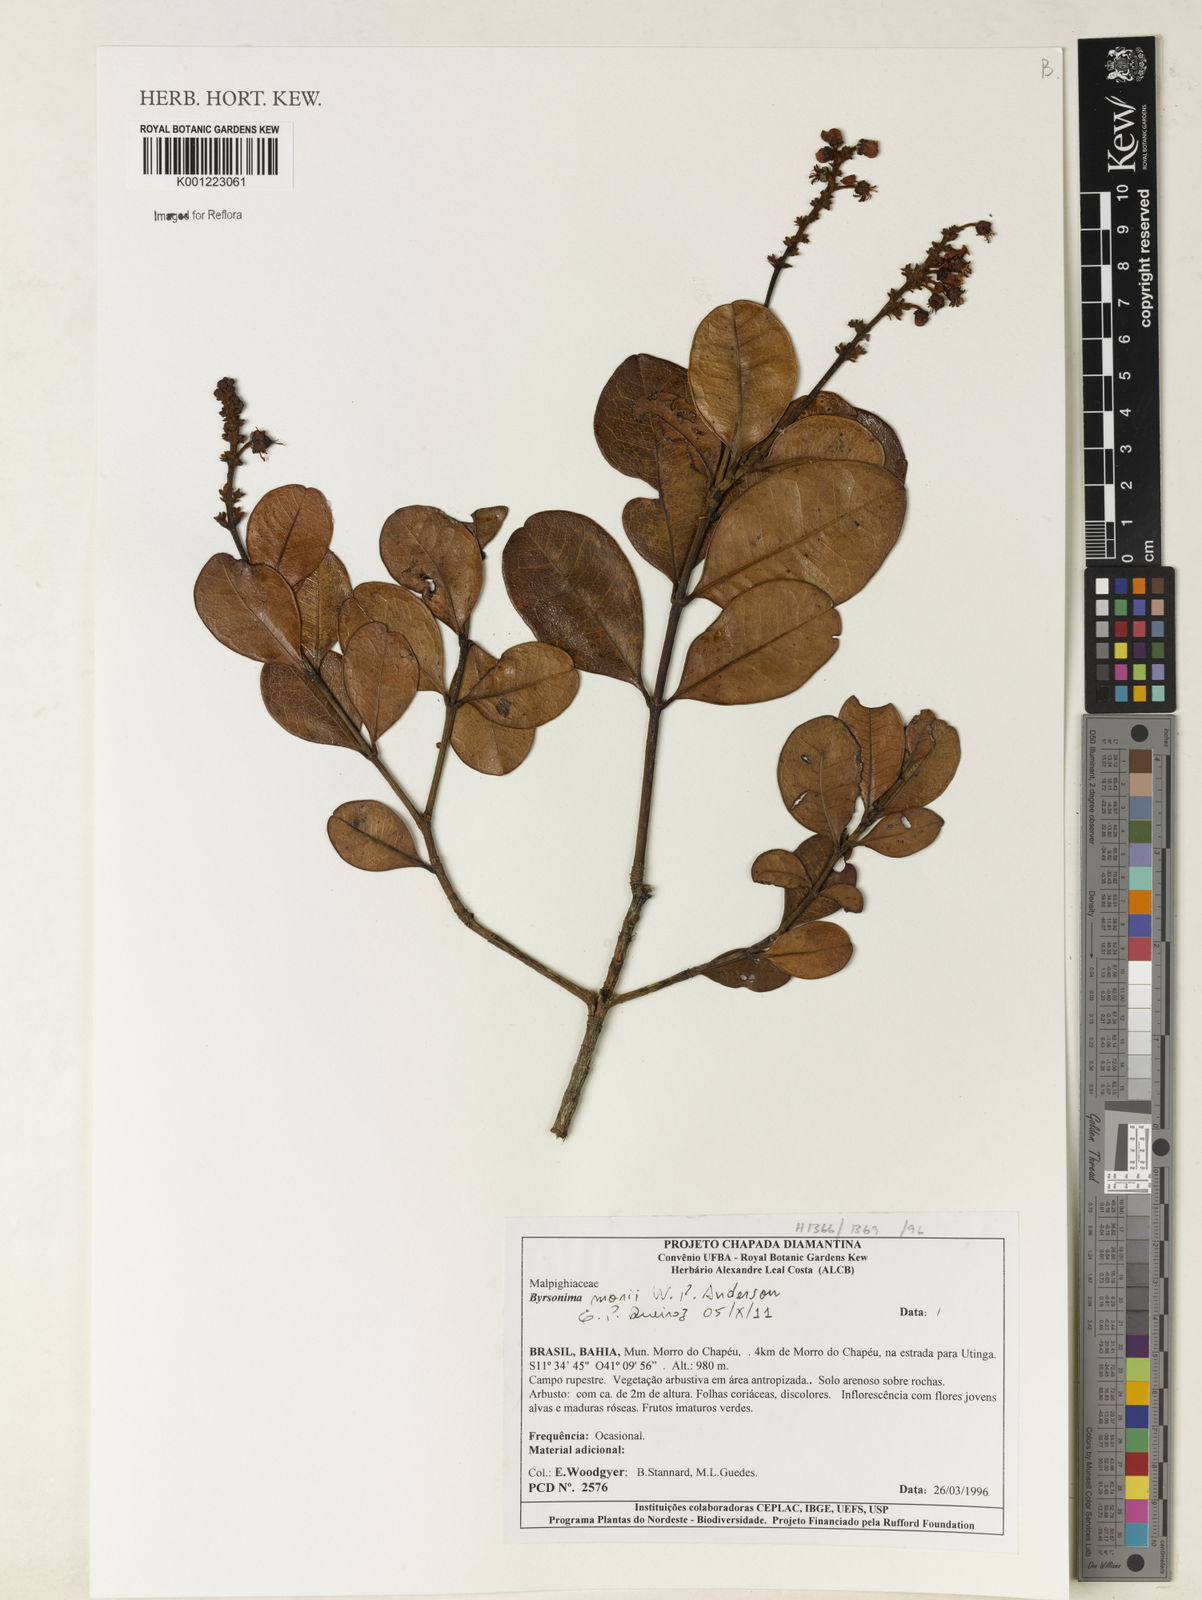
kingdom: Plantae
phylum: Tracheophyta
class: Magnoliopsida
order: Malpighiales
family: Malpighiaceae
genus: Byrsonima
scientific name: Byrsonima morii
